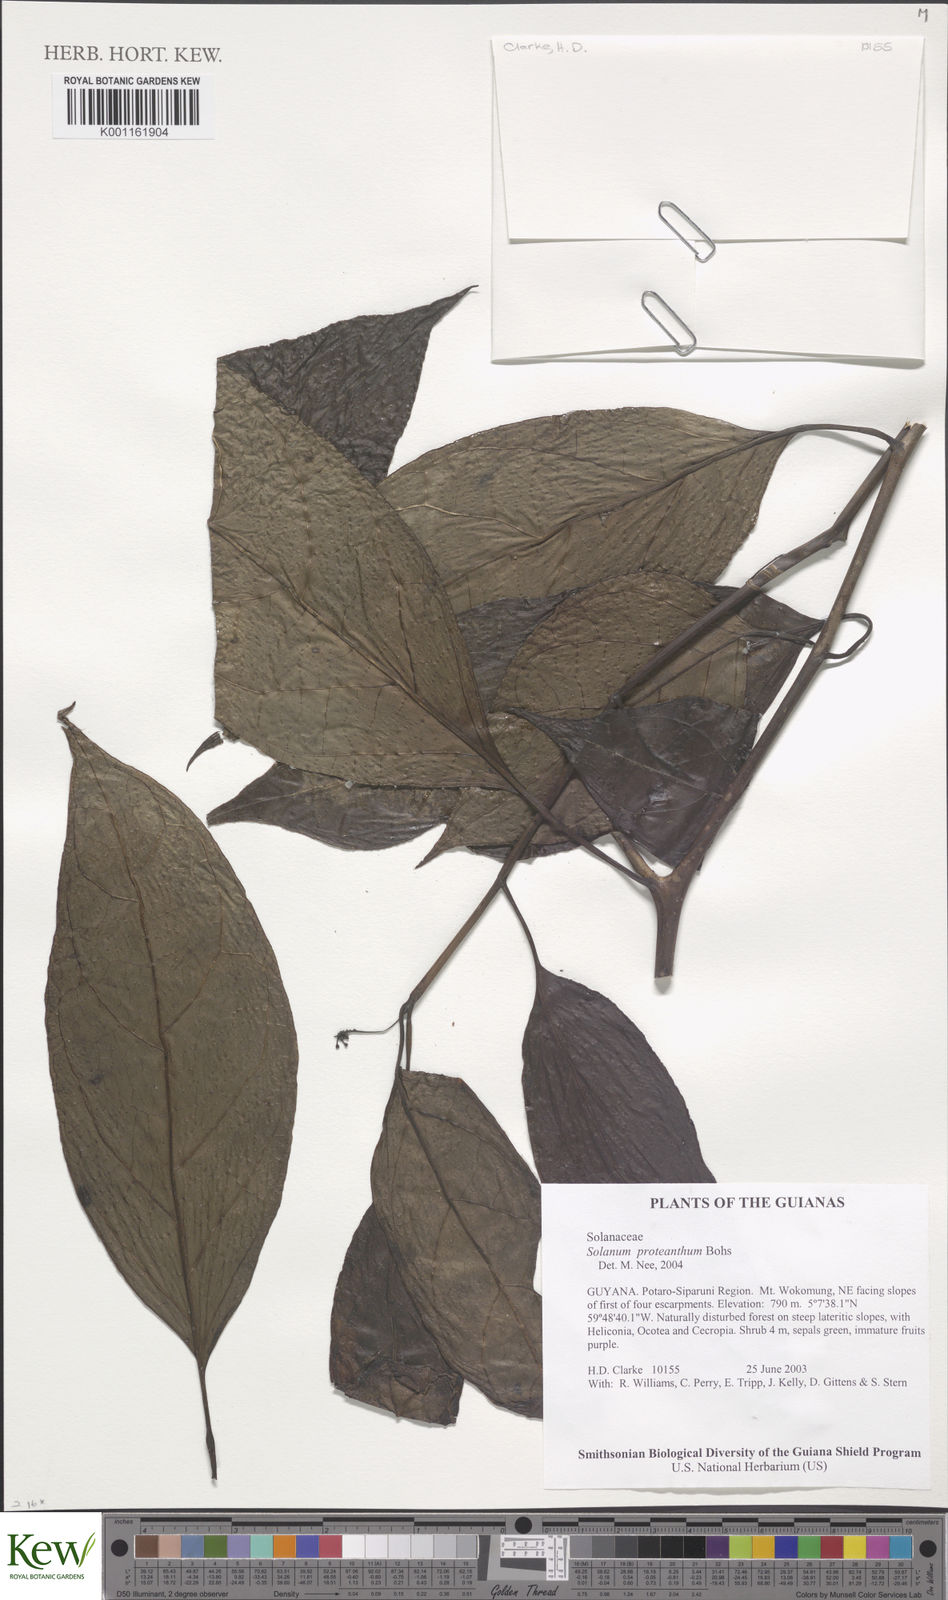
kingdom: Plantae
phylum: Tracheophyta
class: Magnoliopsida
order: Solanales
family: Solanaceae
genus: Solanum
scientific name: Solanum proteanthum
